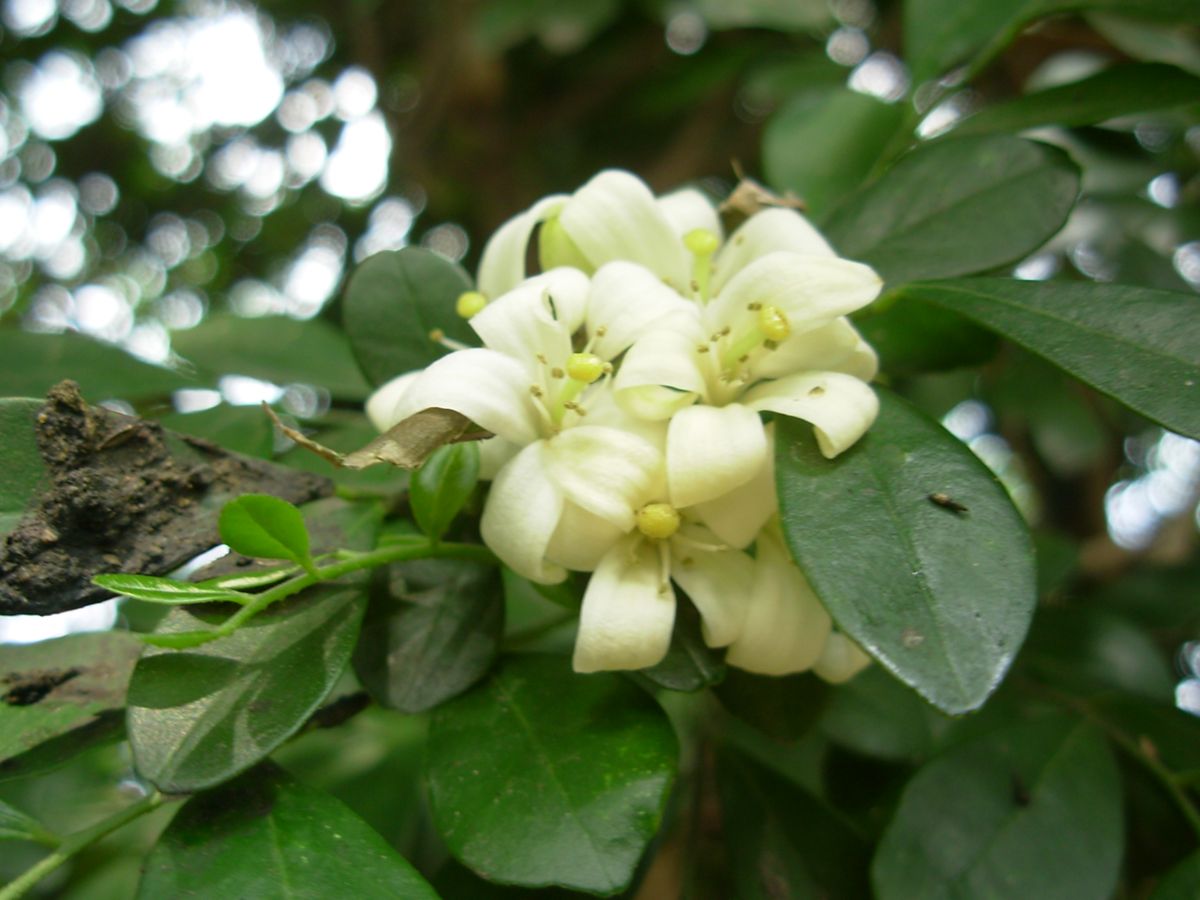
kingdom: Plantae
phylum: Tracheophyta
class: Magnoliopsida
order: Sapindales
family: Rutaceae
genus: Murraya
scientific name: Murraya paniculata
